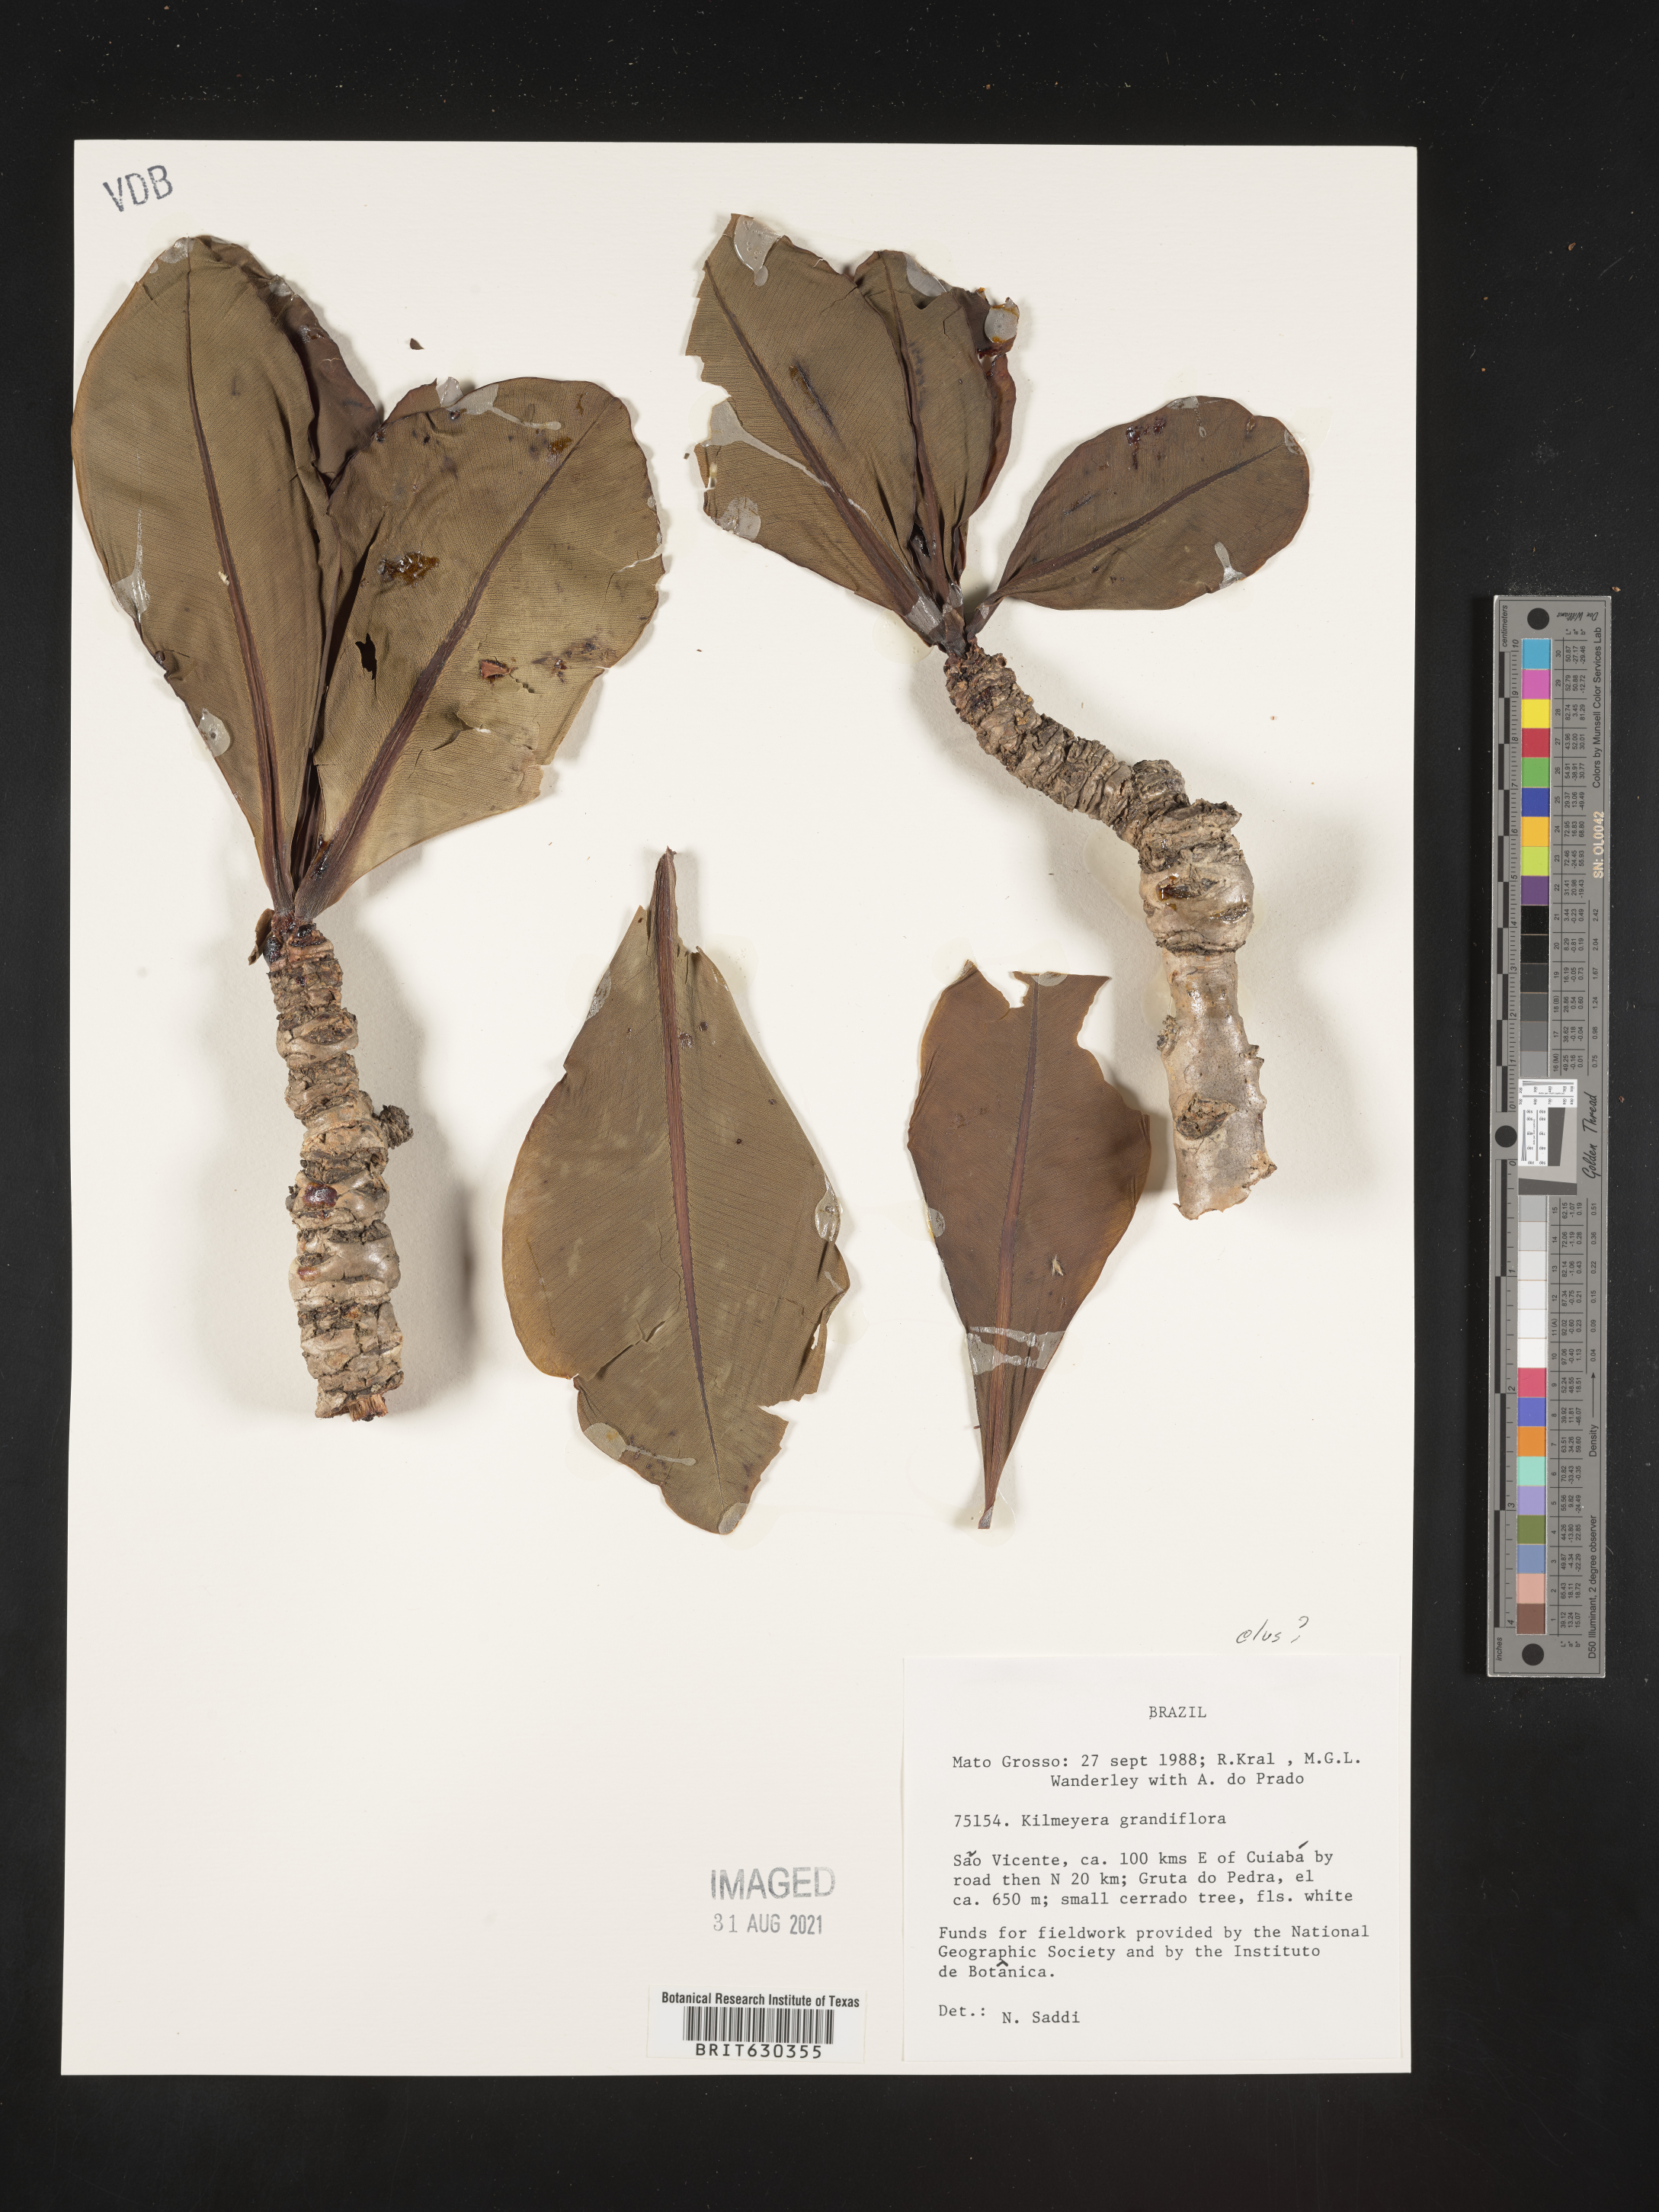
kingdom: Plantae
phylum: Tracheophyta
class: Magnoliopsida
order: Malpighiales
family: Calophyllaceae
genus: Kielmeyera
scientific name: Kielmeyera
